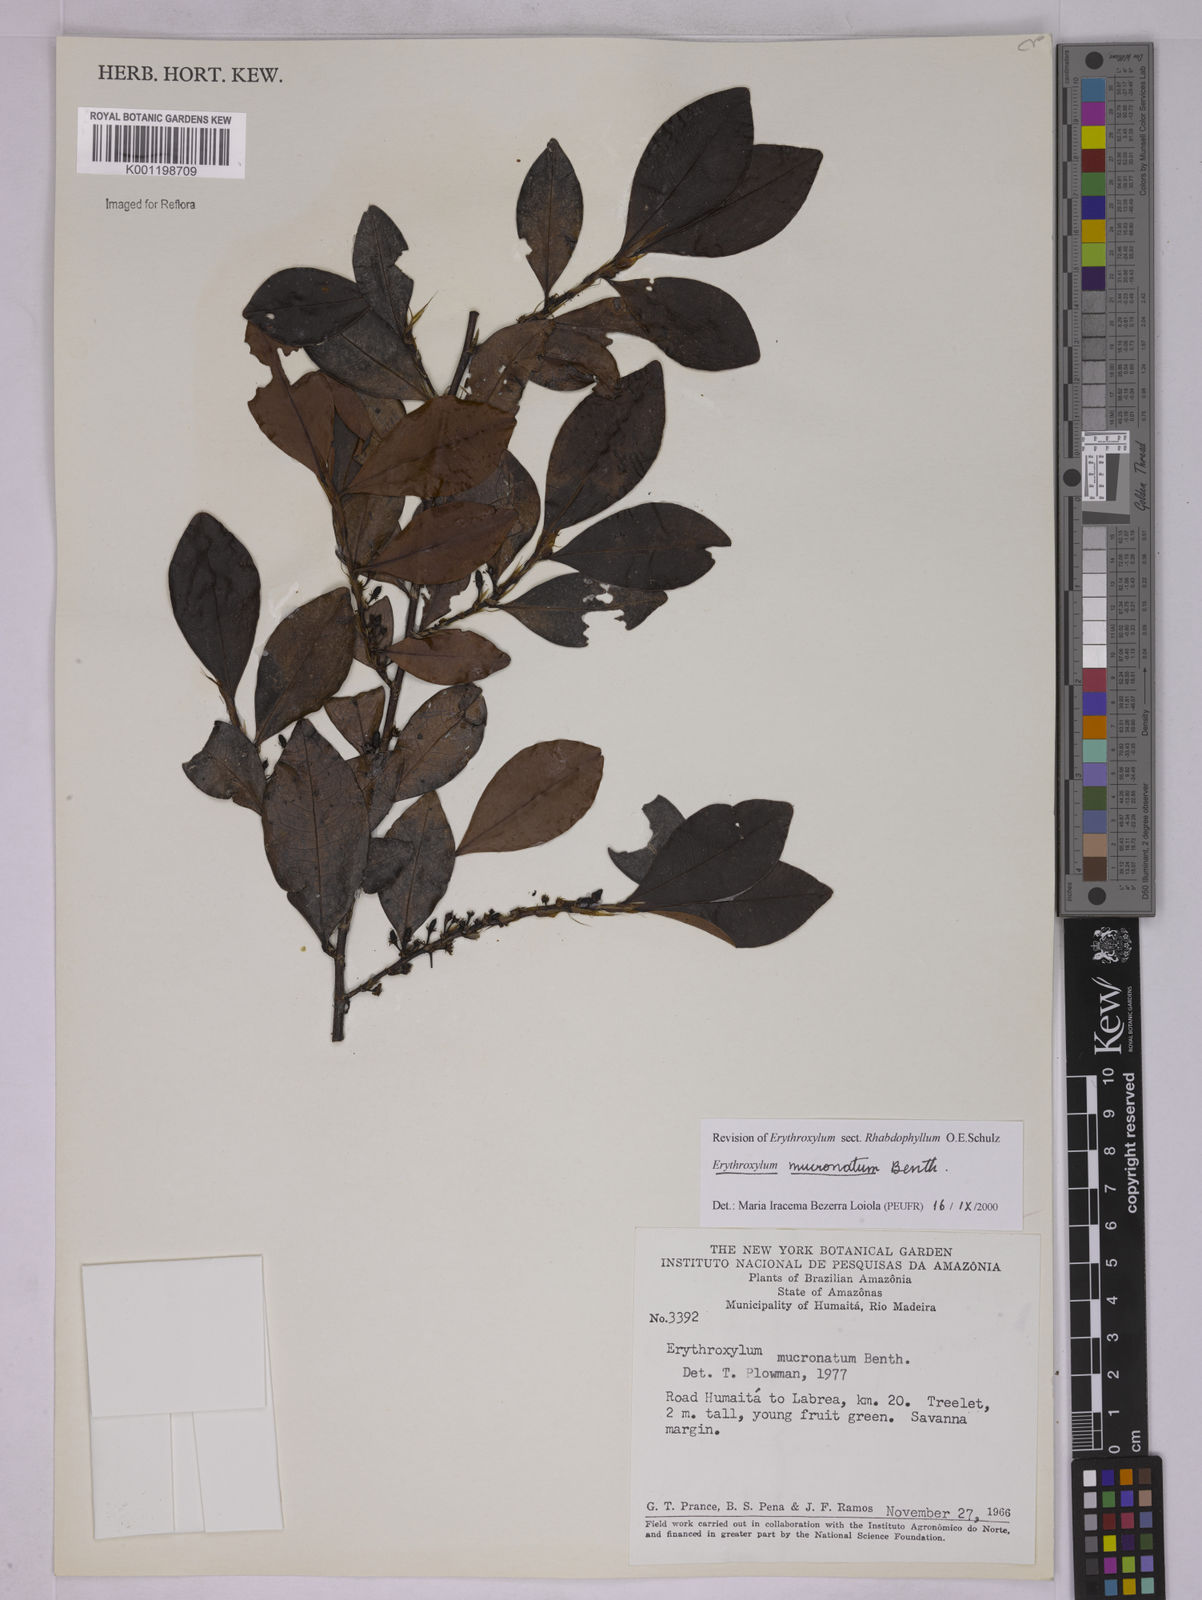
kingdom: Plantae
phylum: Tracheophyta
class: Magnoliopsida
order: Malpighiales
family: Erythroxylaceae
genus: Erythroxylum
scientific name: Erythroxylum mucronatum
